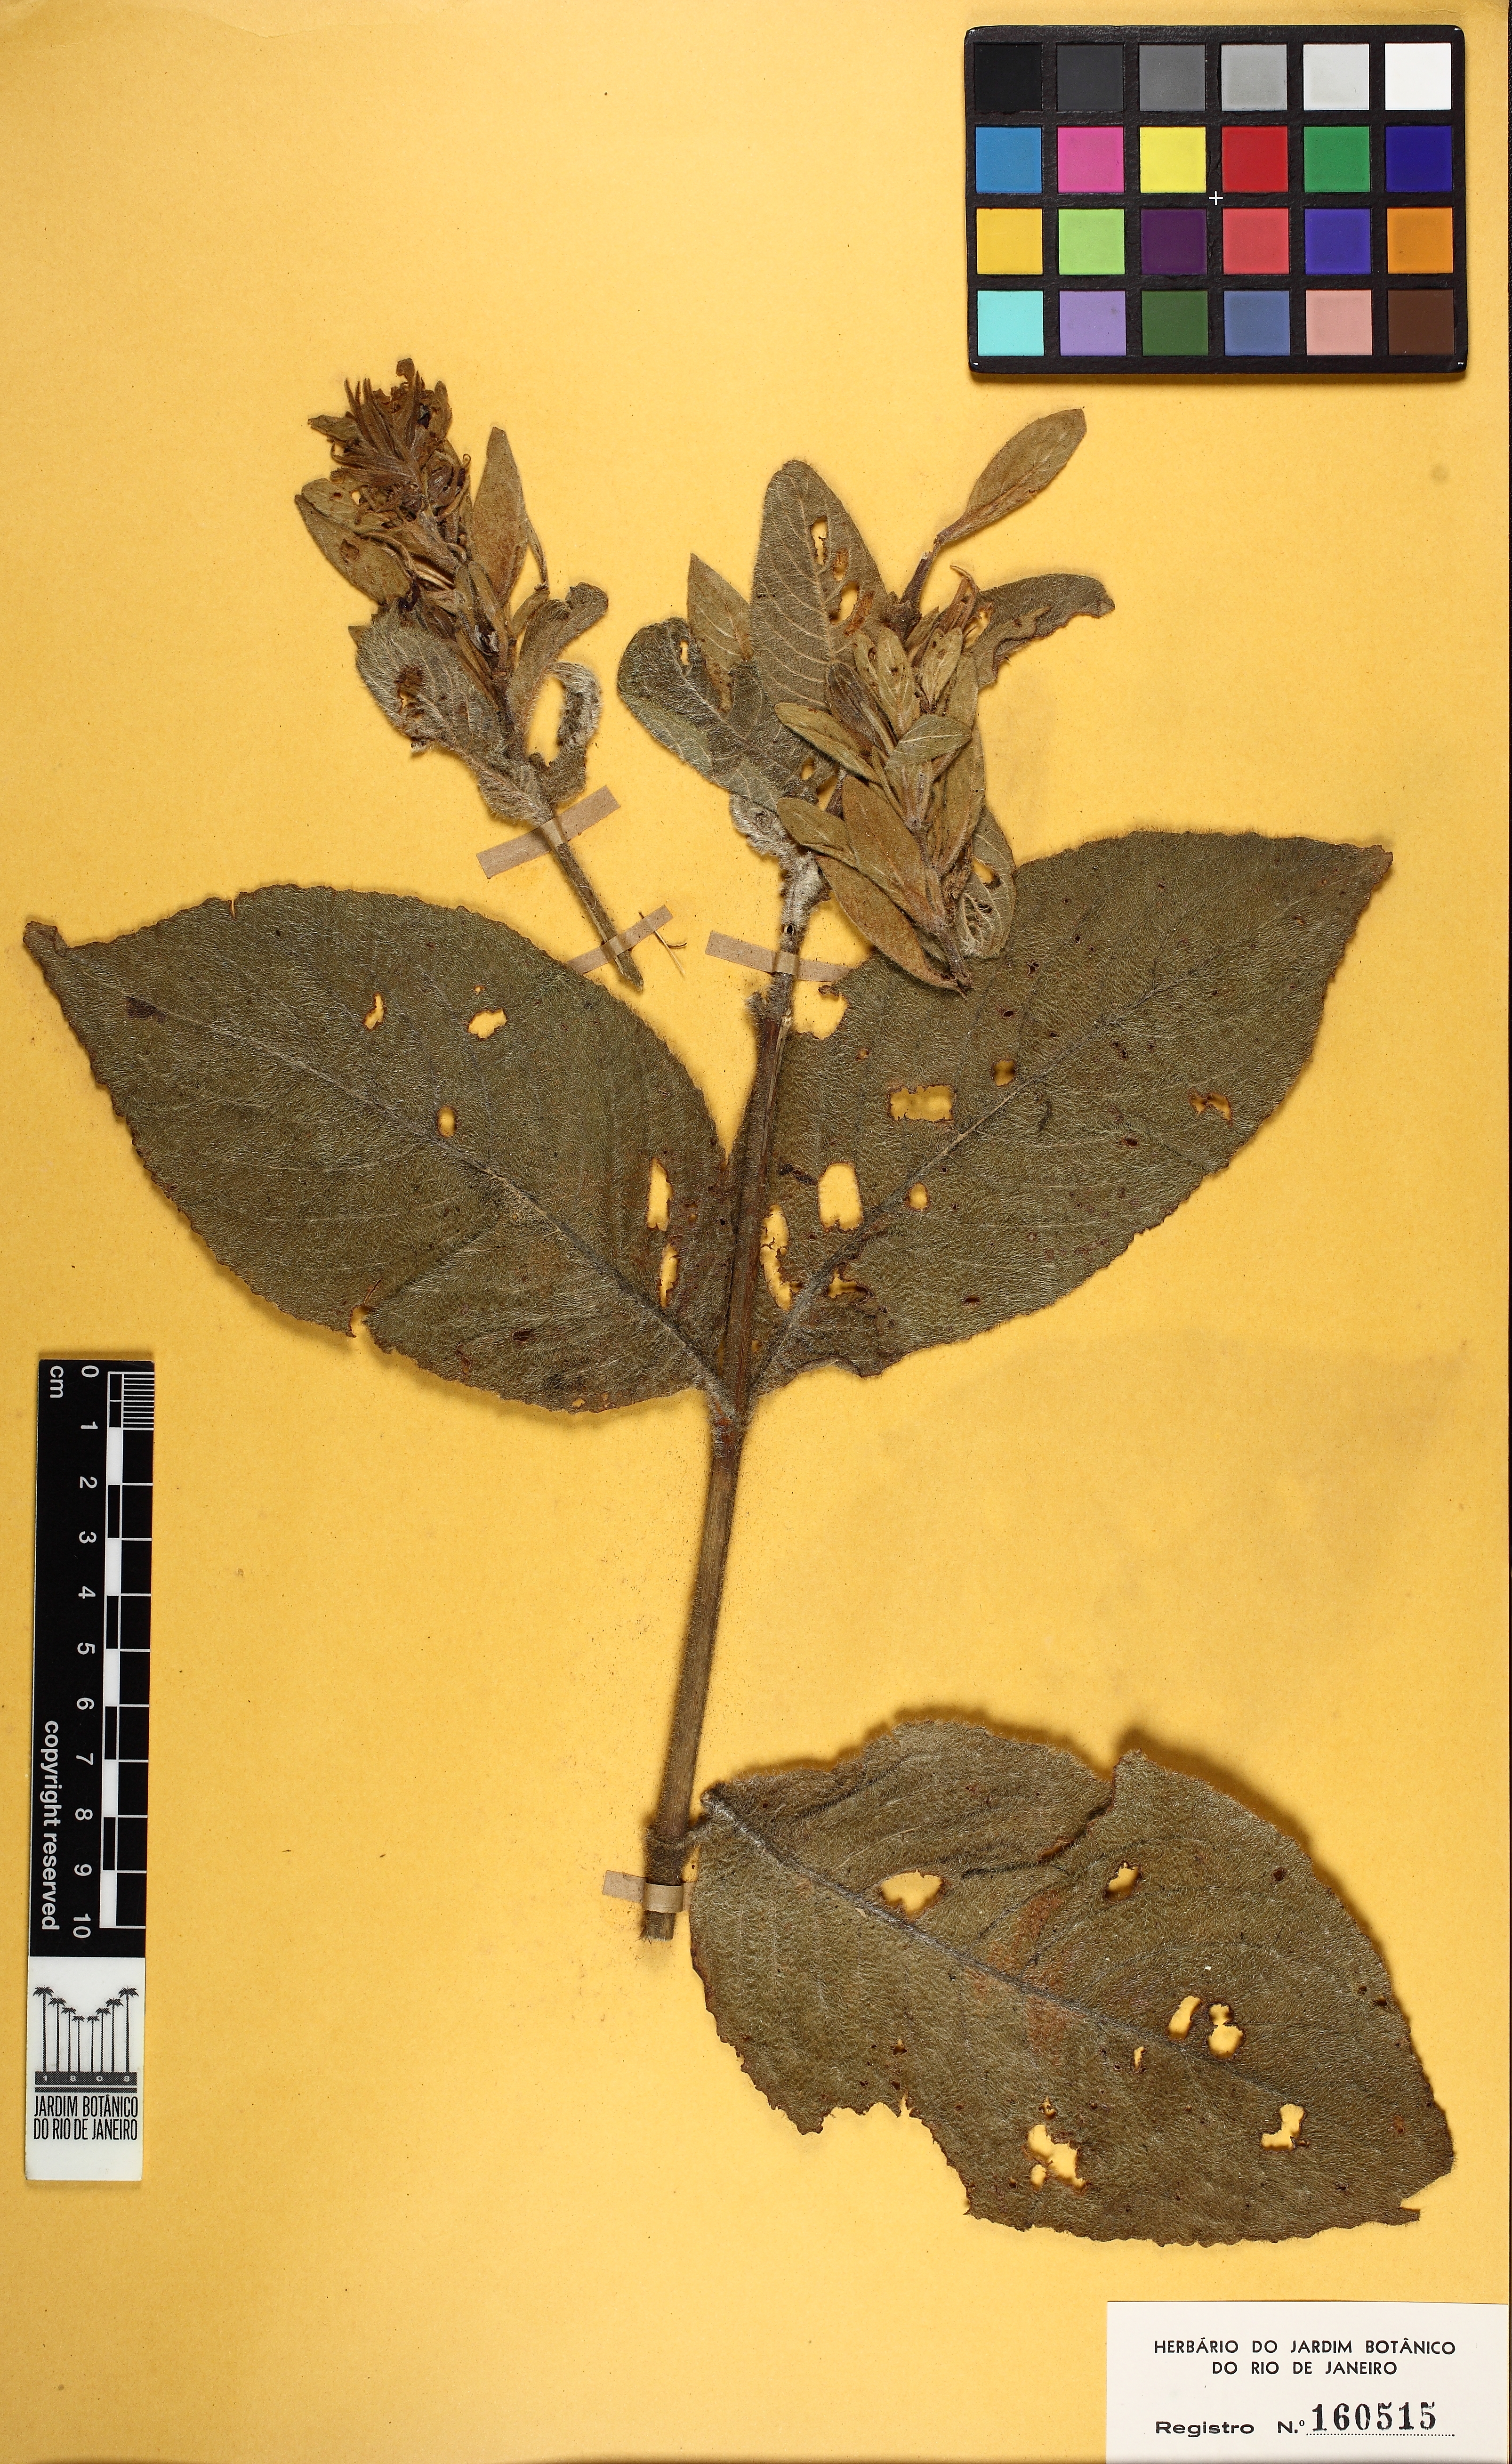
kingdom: Plantae
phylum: Tracheophyta
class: Magnoliopsida
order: Lamiales
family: Acanthaceae
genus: Ruellia
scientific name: Ruellia neesiana
